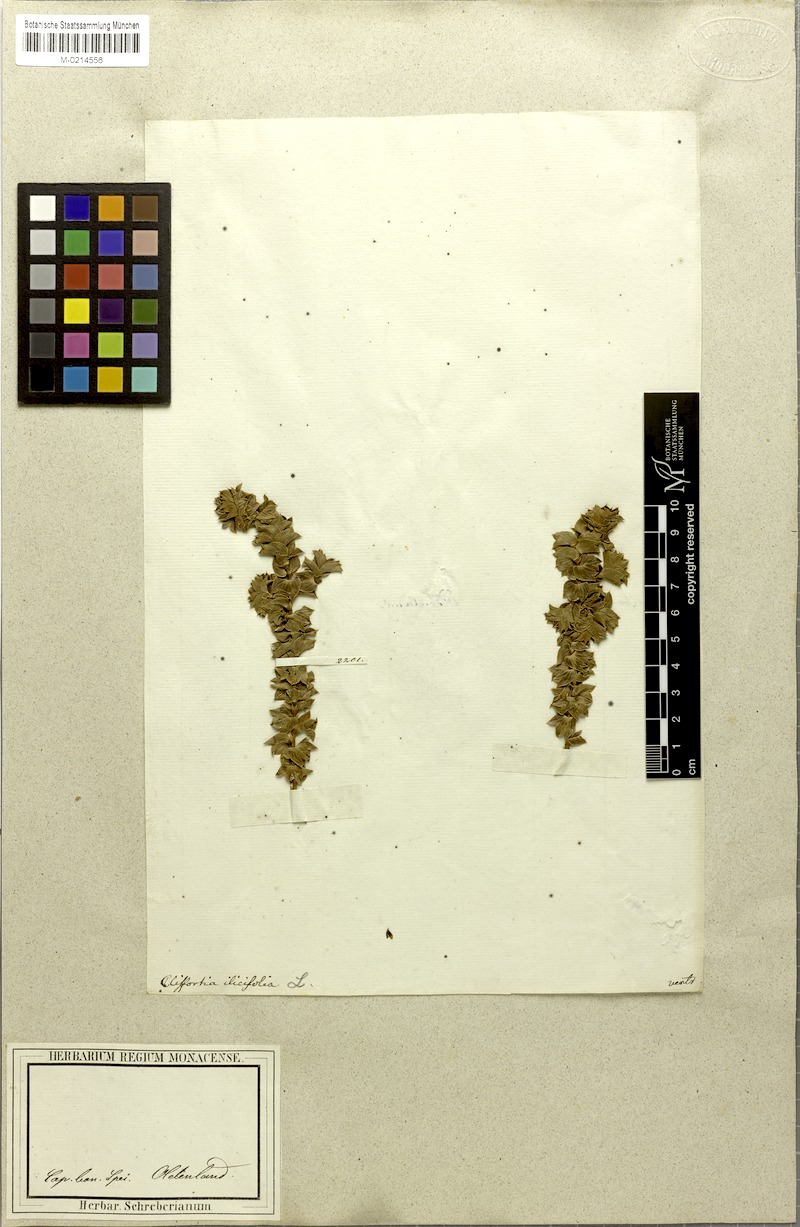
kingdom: Plantae
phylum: Tracheophyta
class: Magnoliopsida
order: Rosales
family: Rosaceae
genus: Cliffortia
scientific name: Cliffortia ilicifolia
